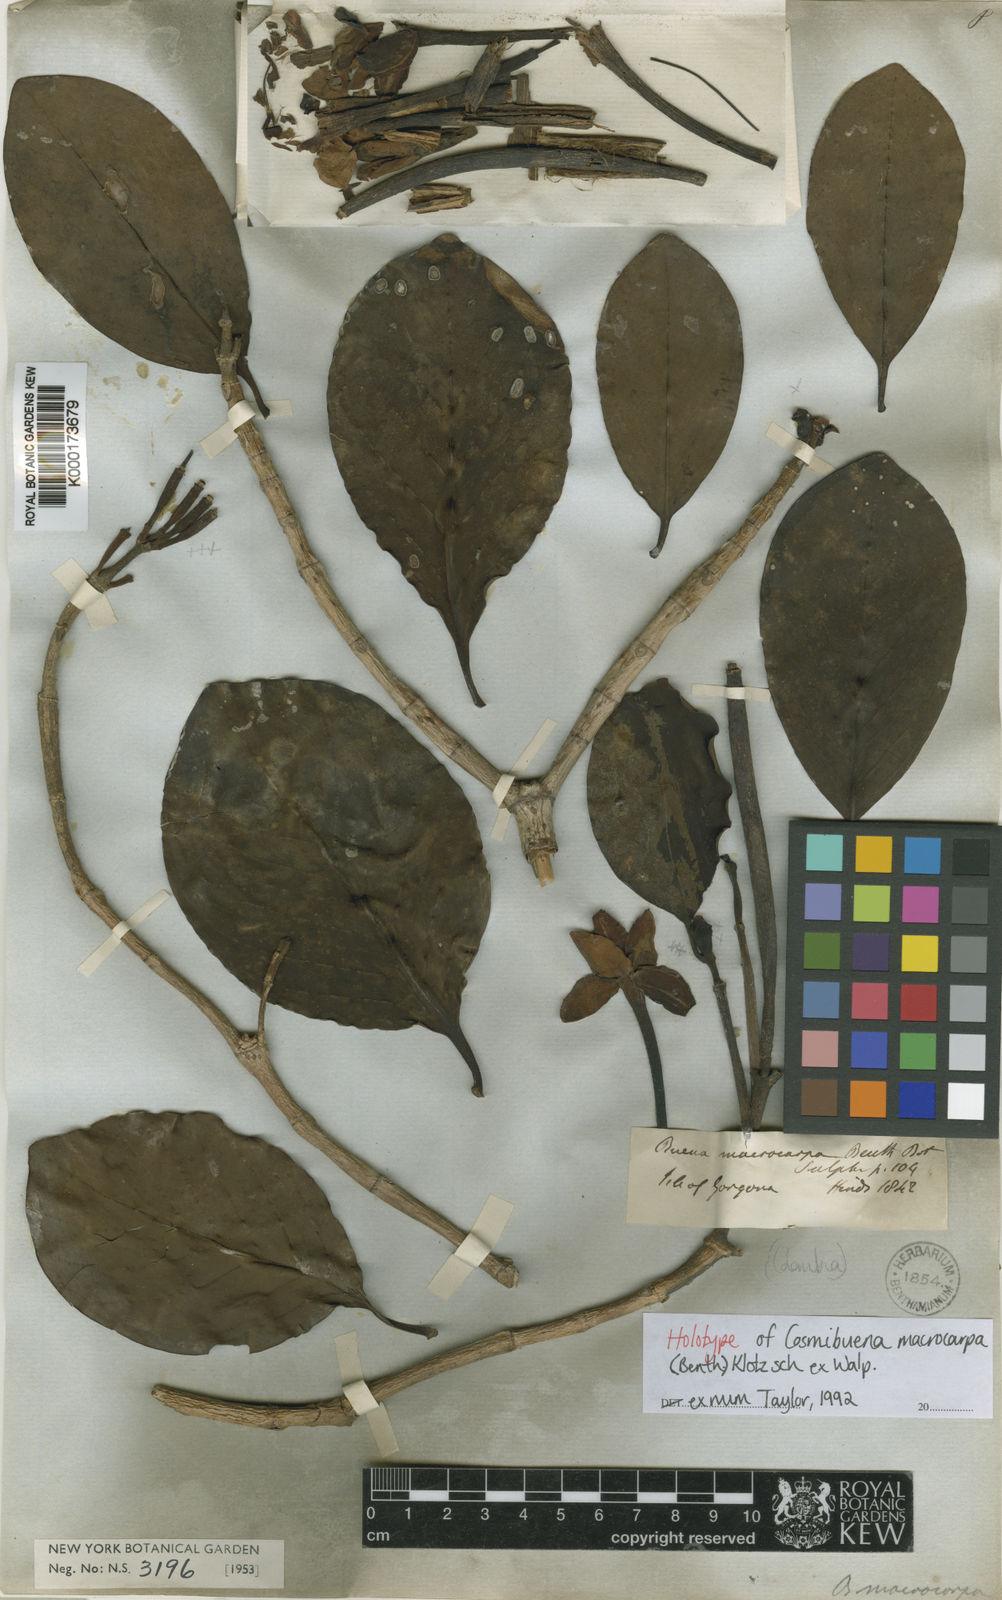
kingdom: Plantae
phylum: Tracheophyta
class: Magnoliopsida
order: Gentianales
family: Rubiaceae
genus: Cosmibuena
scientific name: Cosmibuena macrocarpa
